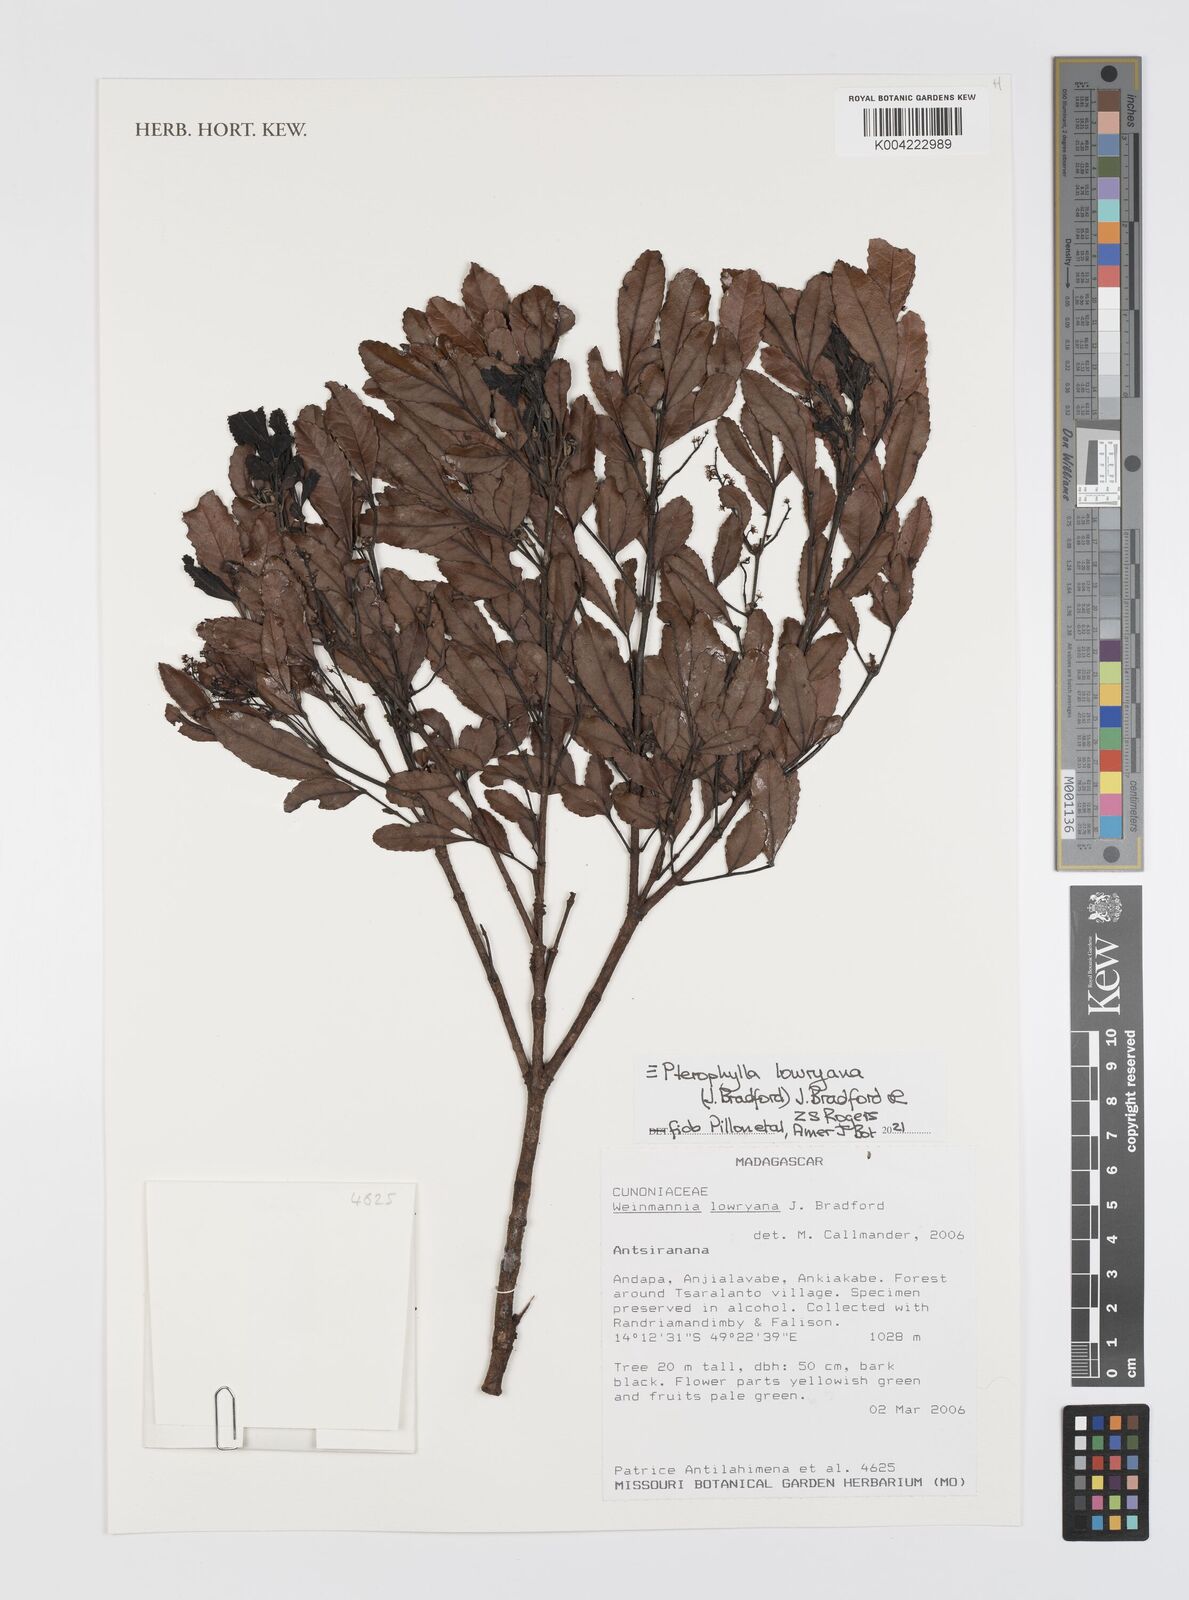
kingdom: Plantae
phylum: Tracheophyta
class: Magnoliopsida
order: Oxalidales
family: Cunoniaceae
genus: Pterophylla
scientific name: Pterophylla lowryana
